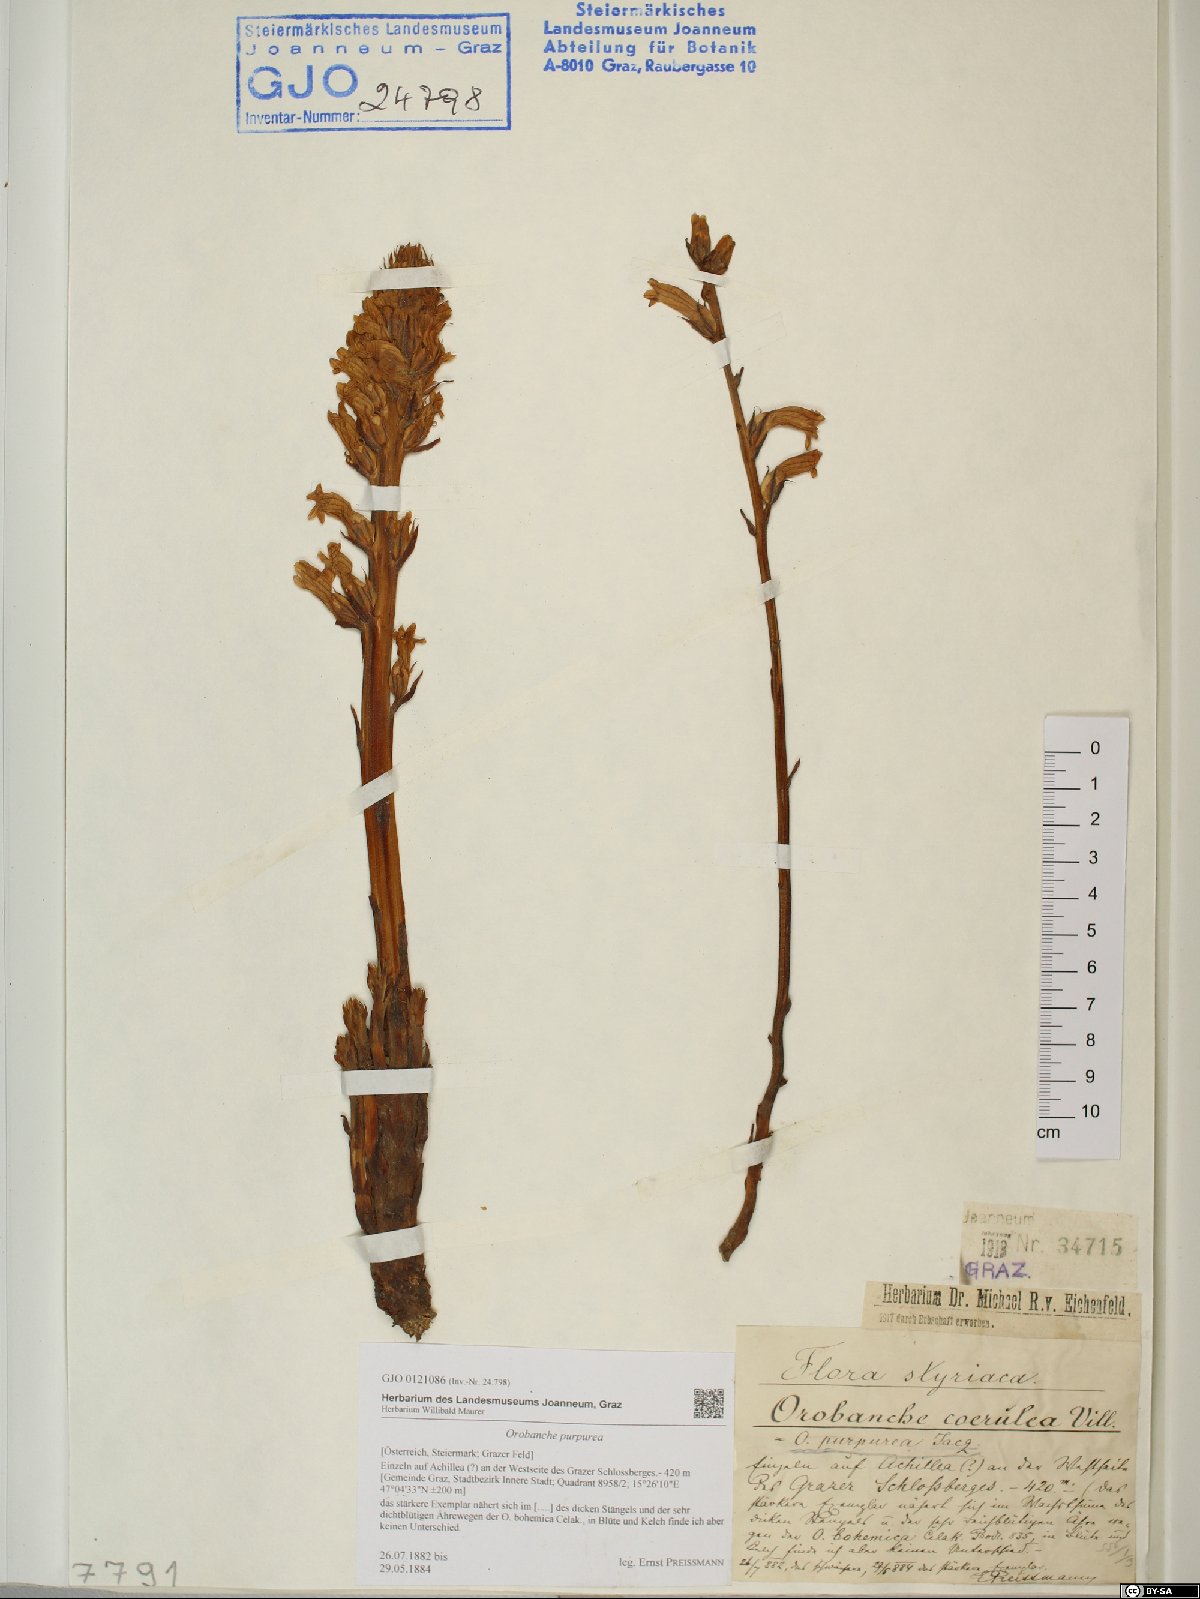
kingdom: Plantae
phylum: Tracheophyta
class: Magnoliopsida
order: Lamiales
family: Orobanchaceae
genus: Phelipanche
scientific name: Phelipanche purpurea
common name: Purple broomrape
